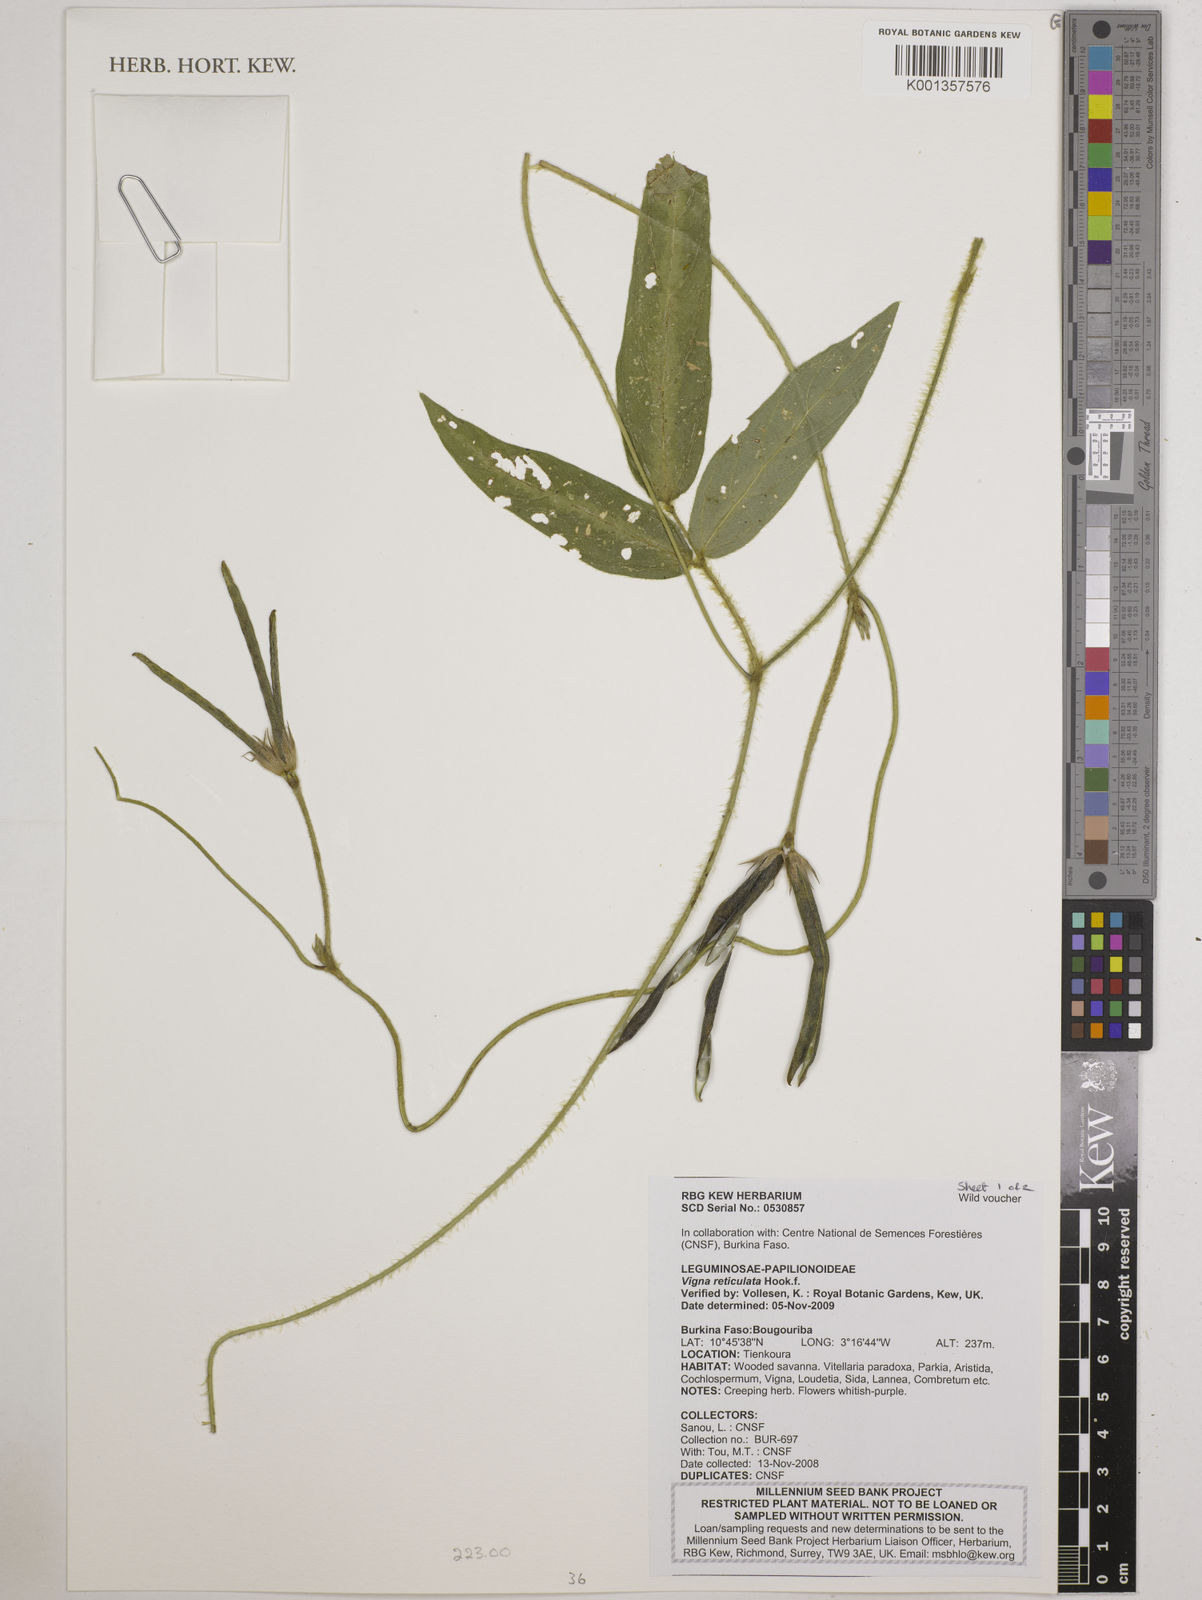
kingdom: Plantae
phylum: Tracheophyta
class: Magnoliopsida
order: Fabales
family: Fabaceae
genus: Vigna
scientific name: Vigna reticulata
